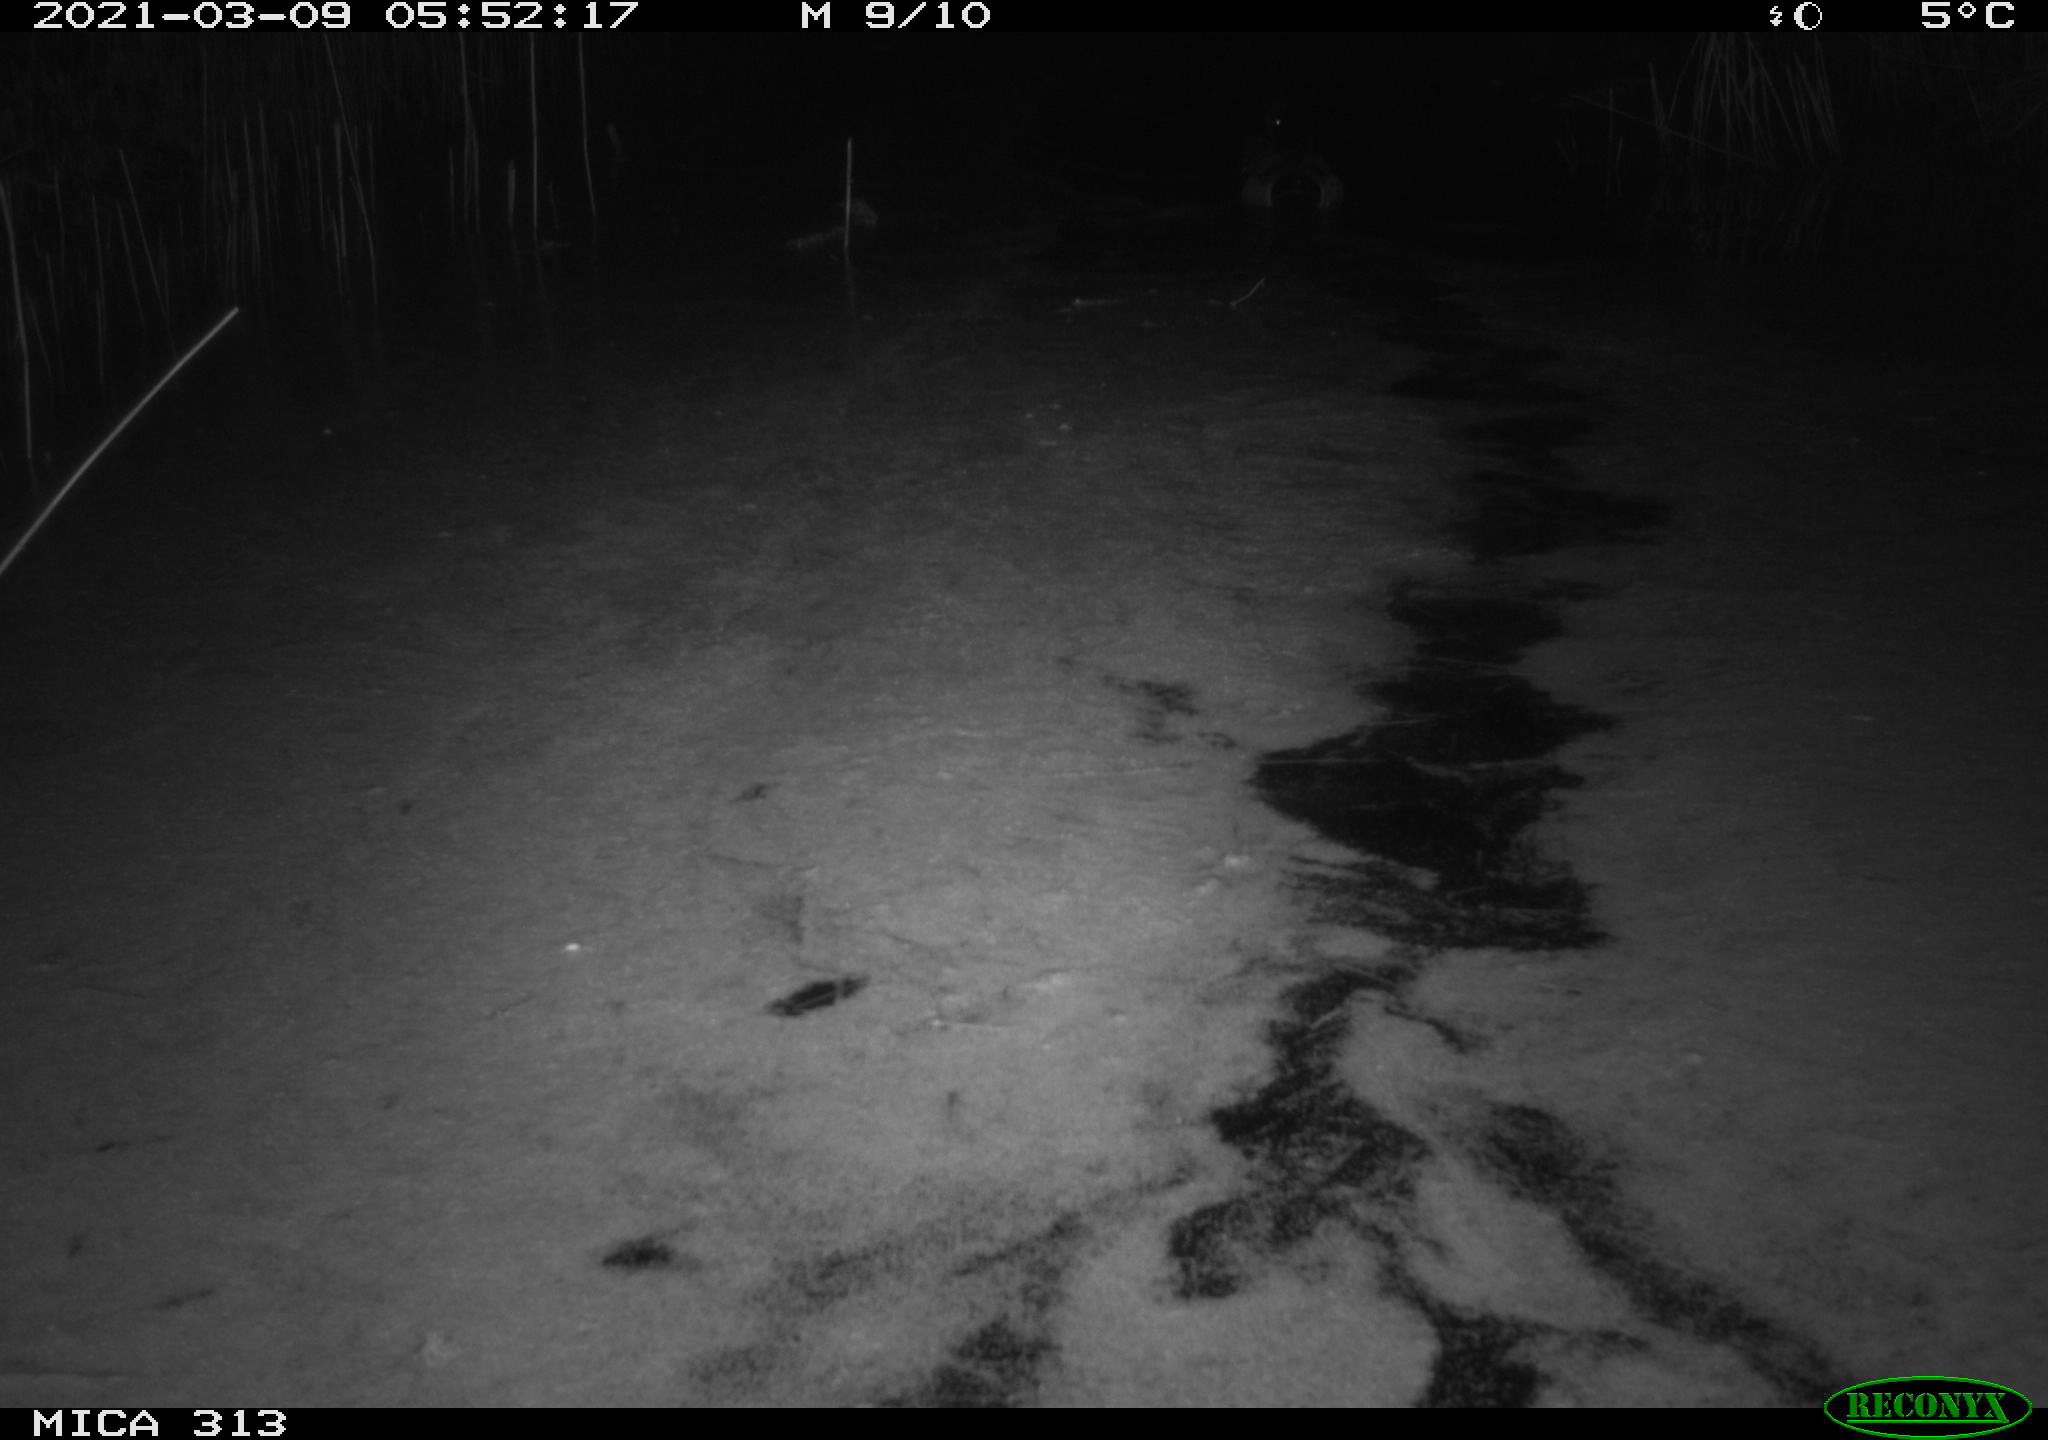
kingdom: Animalia
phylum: Chordata
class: Aves
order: Anseriformes
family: Anatidae
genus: Anas
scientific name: Anas platyrhynchos
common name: Mallard
